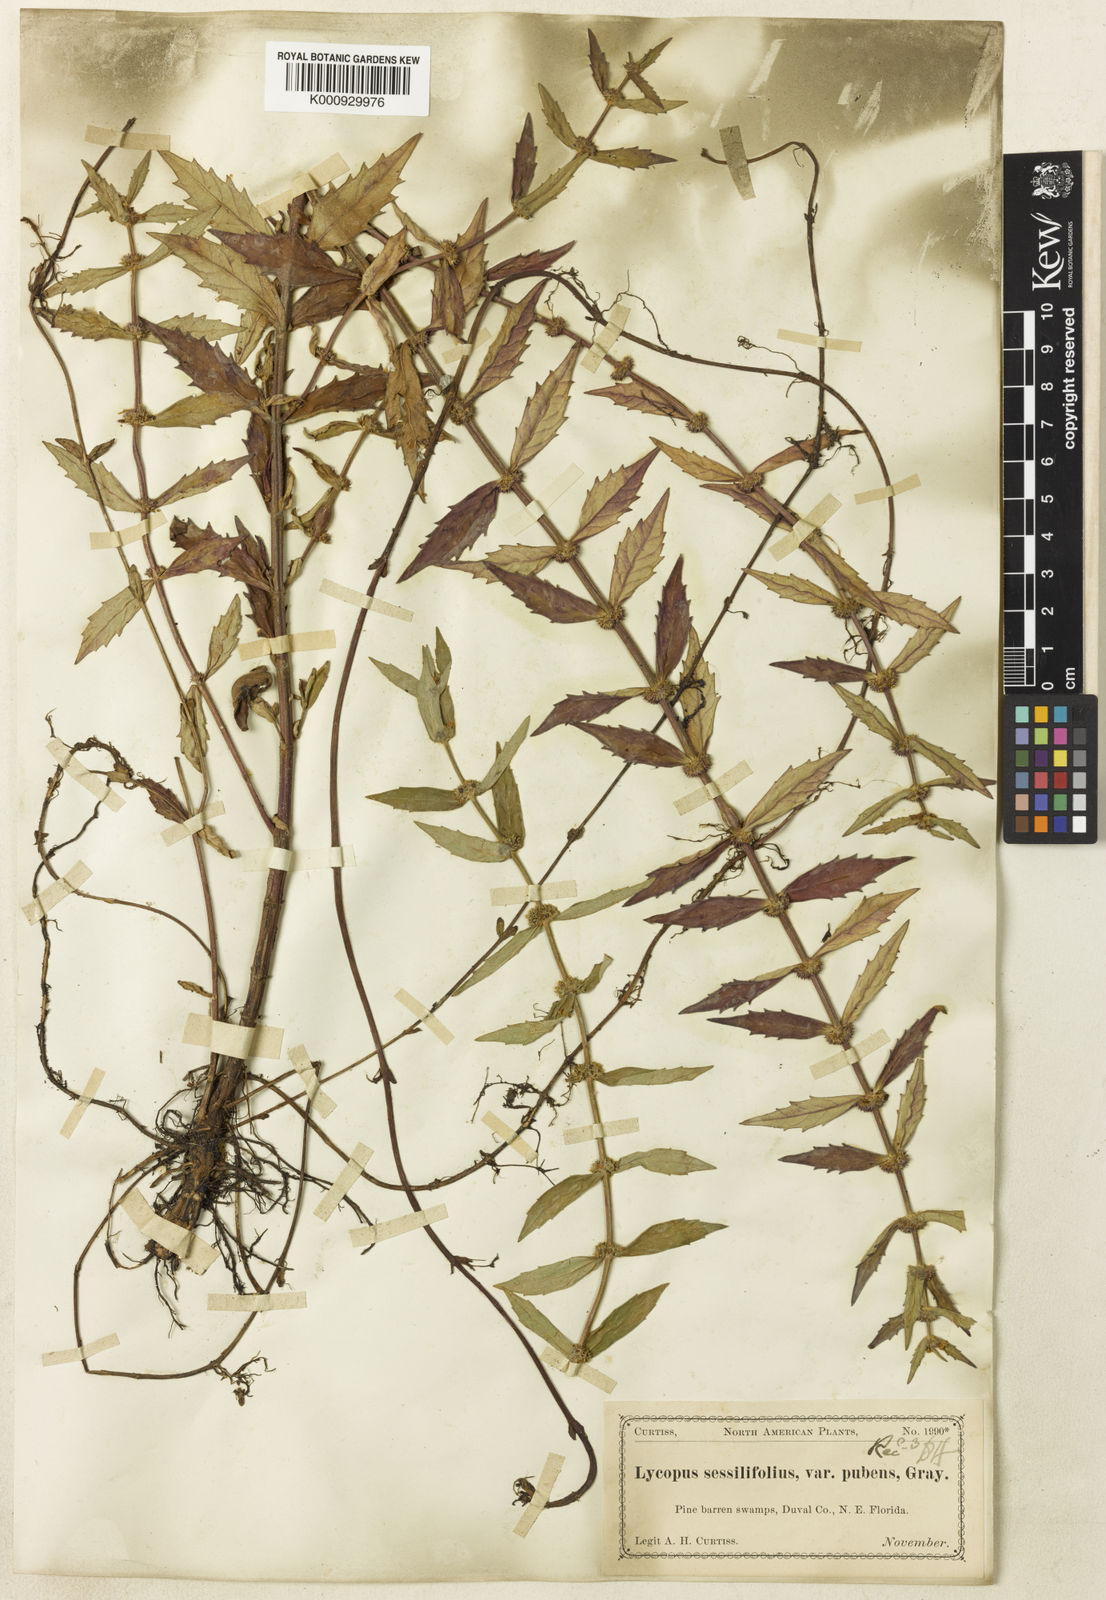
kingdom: Plantae
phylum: Tracheophyta
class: Magnoliopsida
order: Lamiales
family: Lamiaceae
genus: Lycopus
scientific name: Lycopus amplectens
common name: Clasping water horehound
